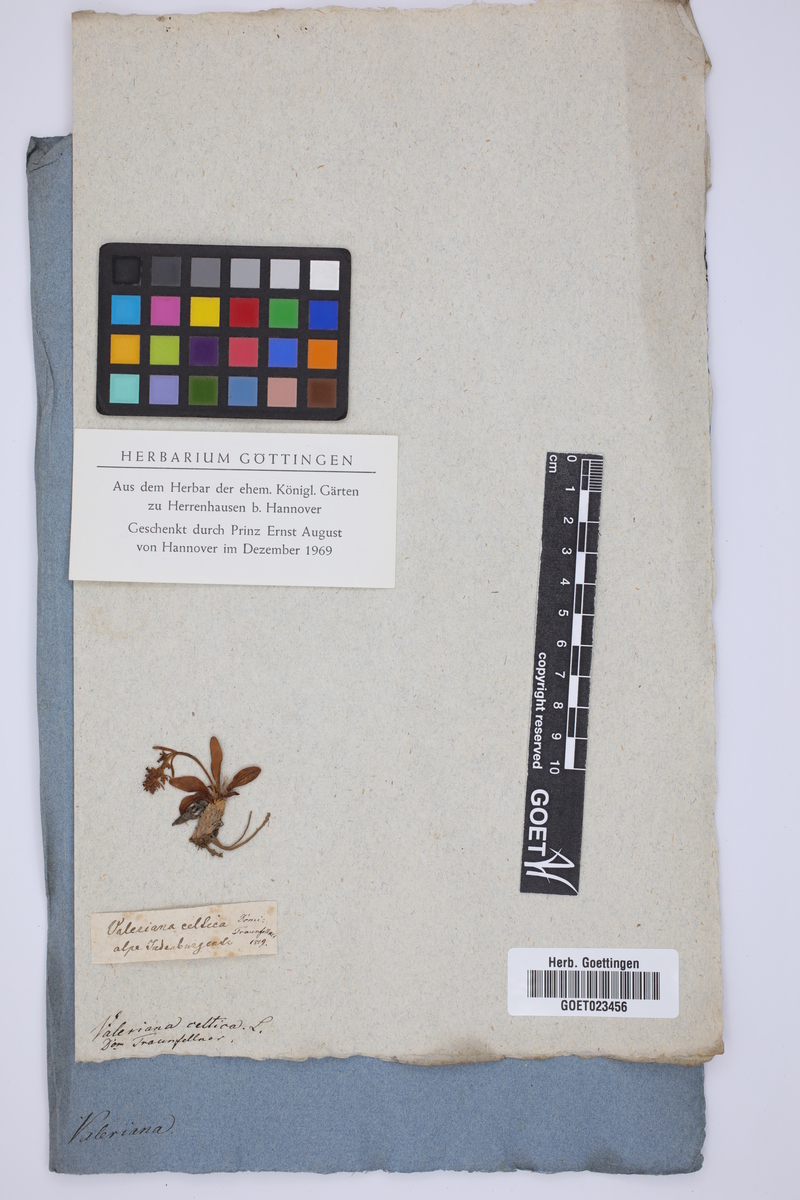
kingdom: Plantae
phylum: Tracheophyta
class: Magnoliopsida
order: Dipsacales
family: Caprifoliaceae
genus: Valeriana
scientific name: Valeriana celtica
